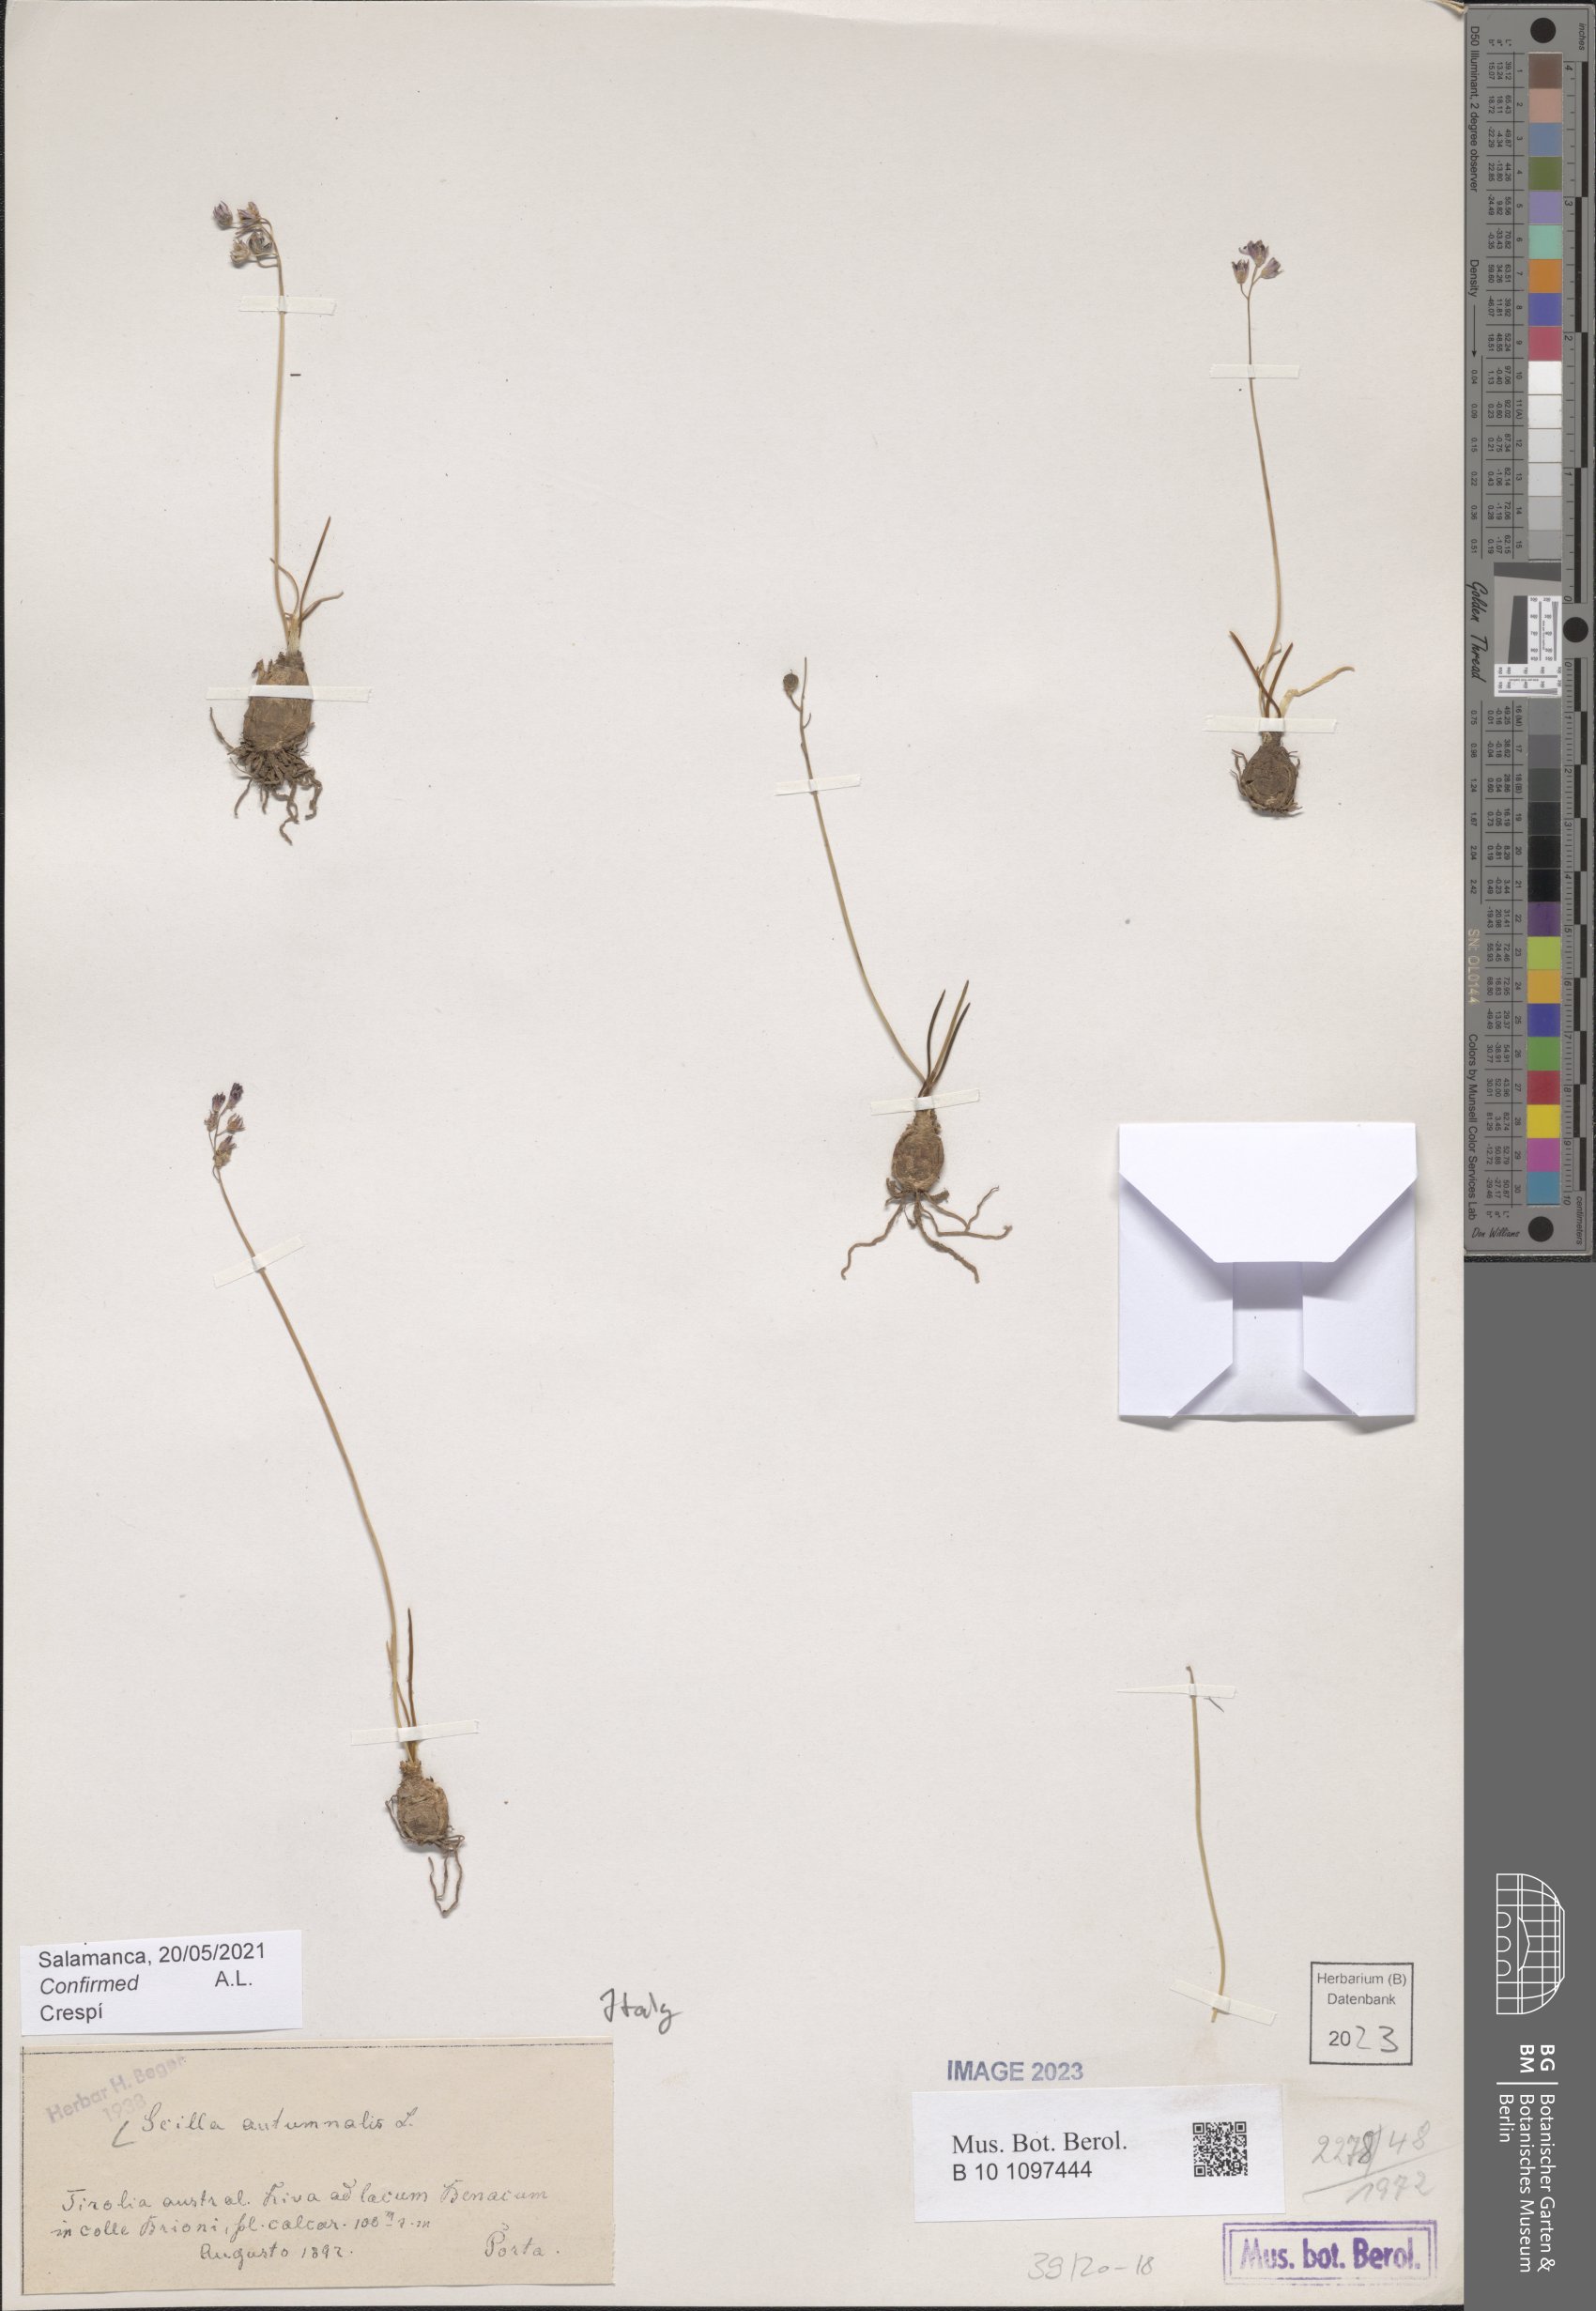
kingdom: Plantae
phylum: Tracheophyta
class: Liliopsida
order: Asparagales
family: Asparagaceae
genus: Prospero
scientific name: Prospero autumnale
